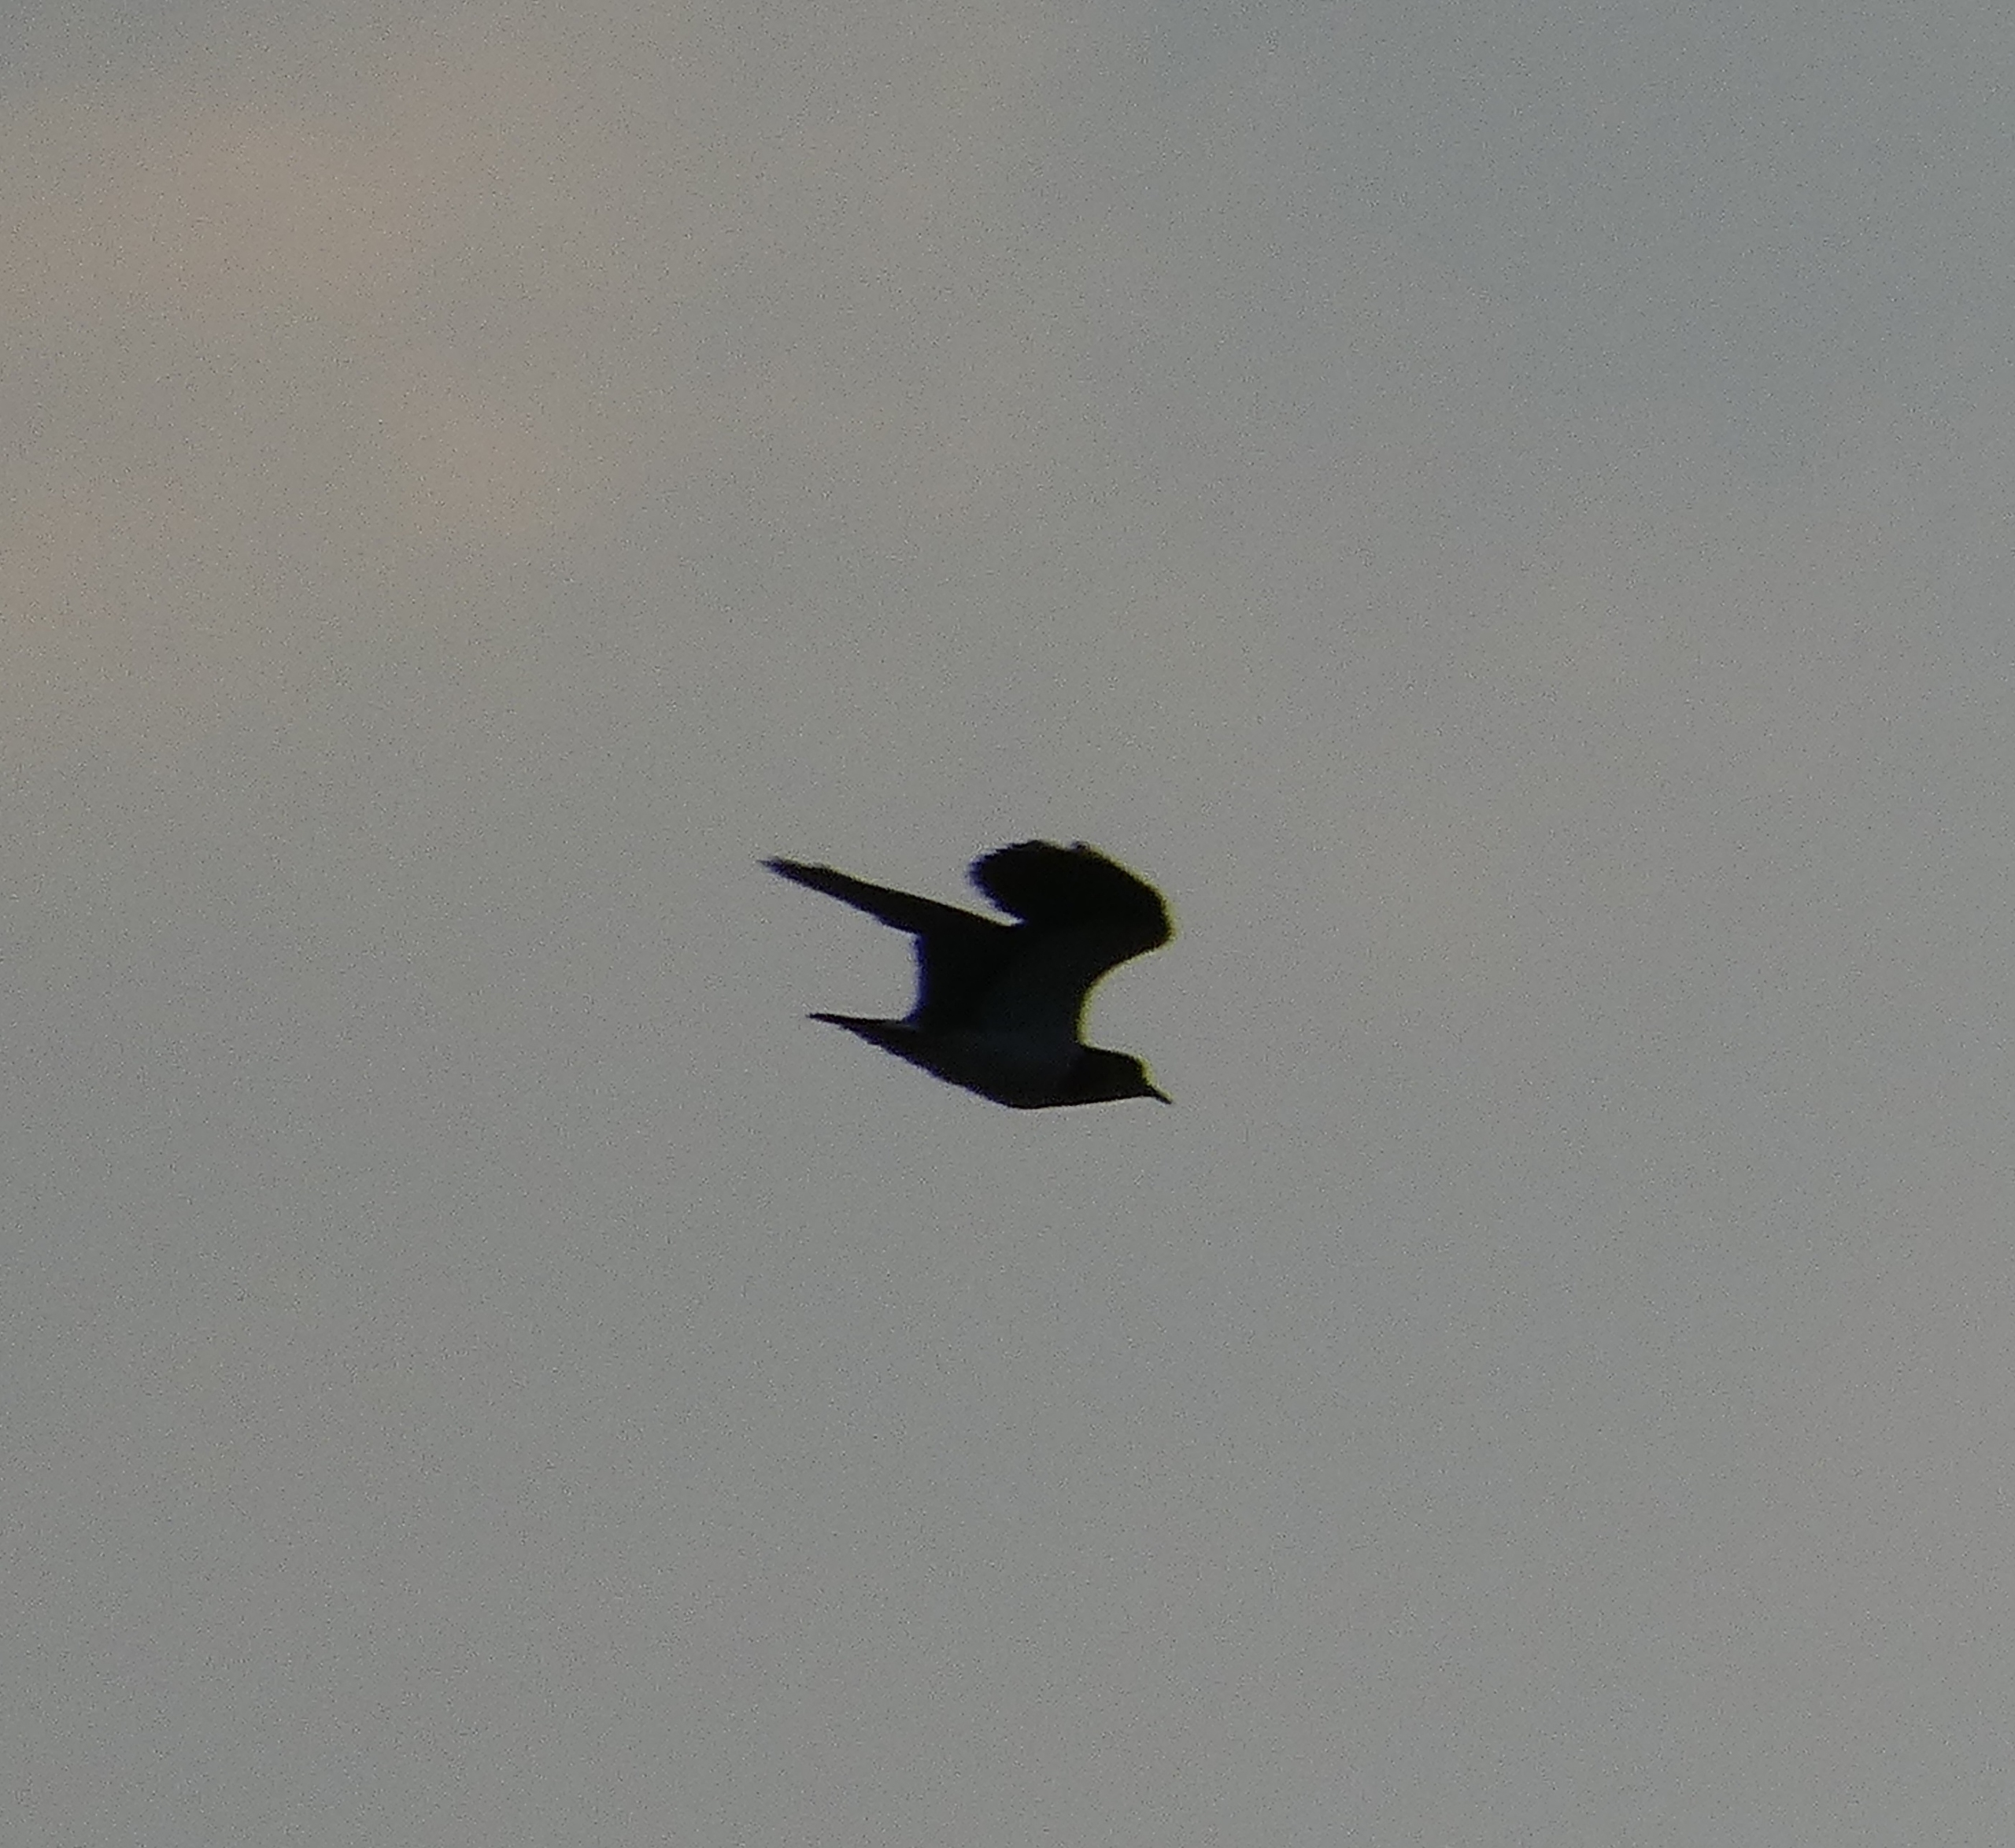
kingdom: Animalia
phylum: Chordata
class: Aves
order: Charadriiformes
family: Charadriidae
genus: Vanellus
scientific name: Vanellus vanellus
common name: Vibe
